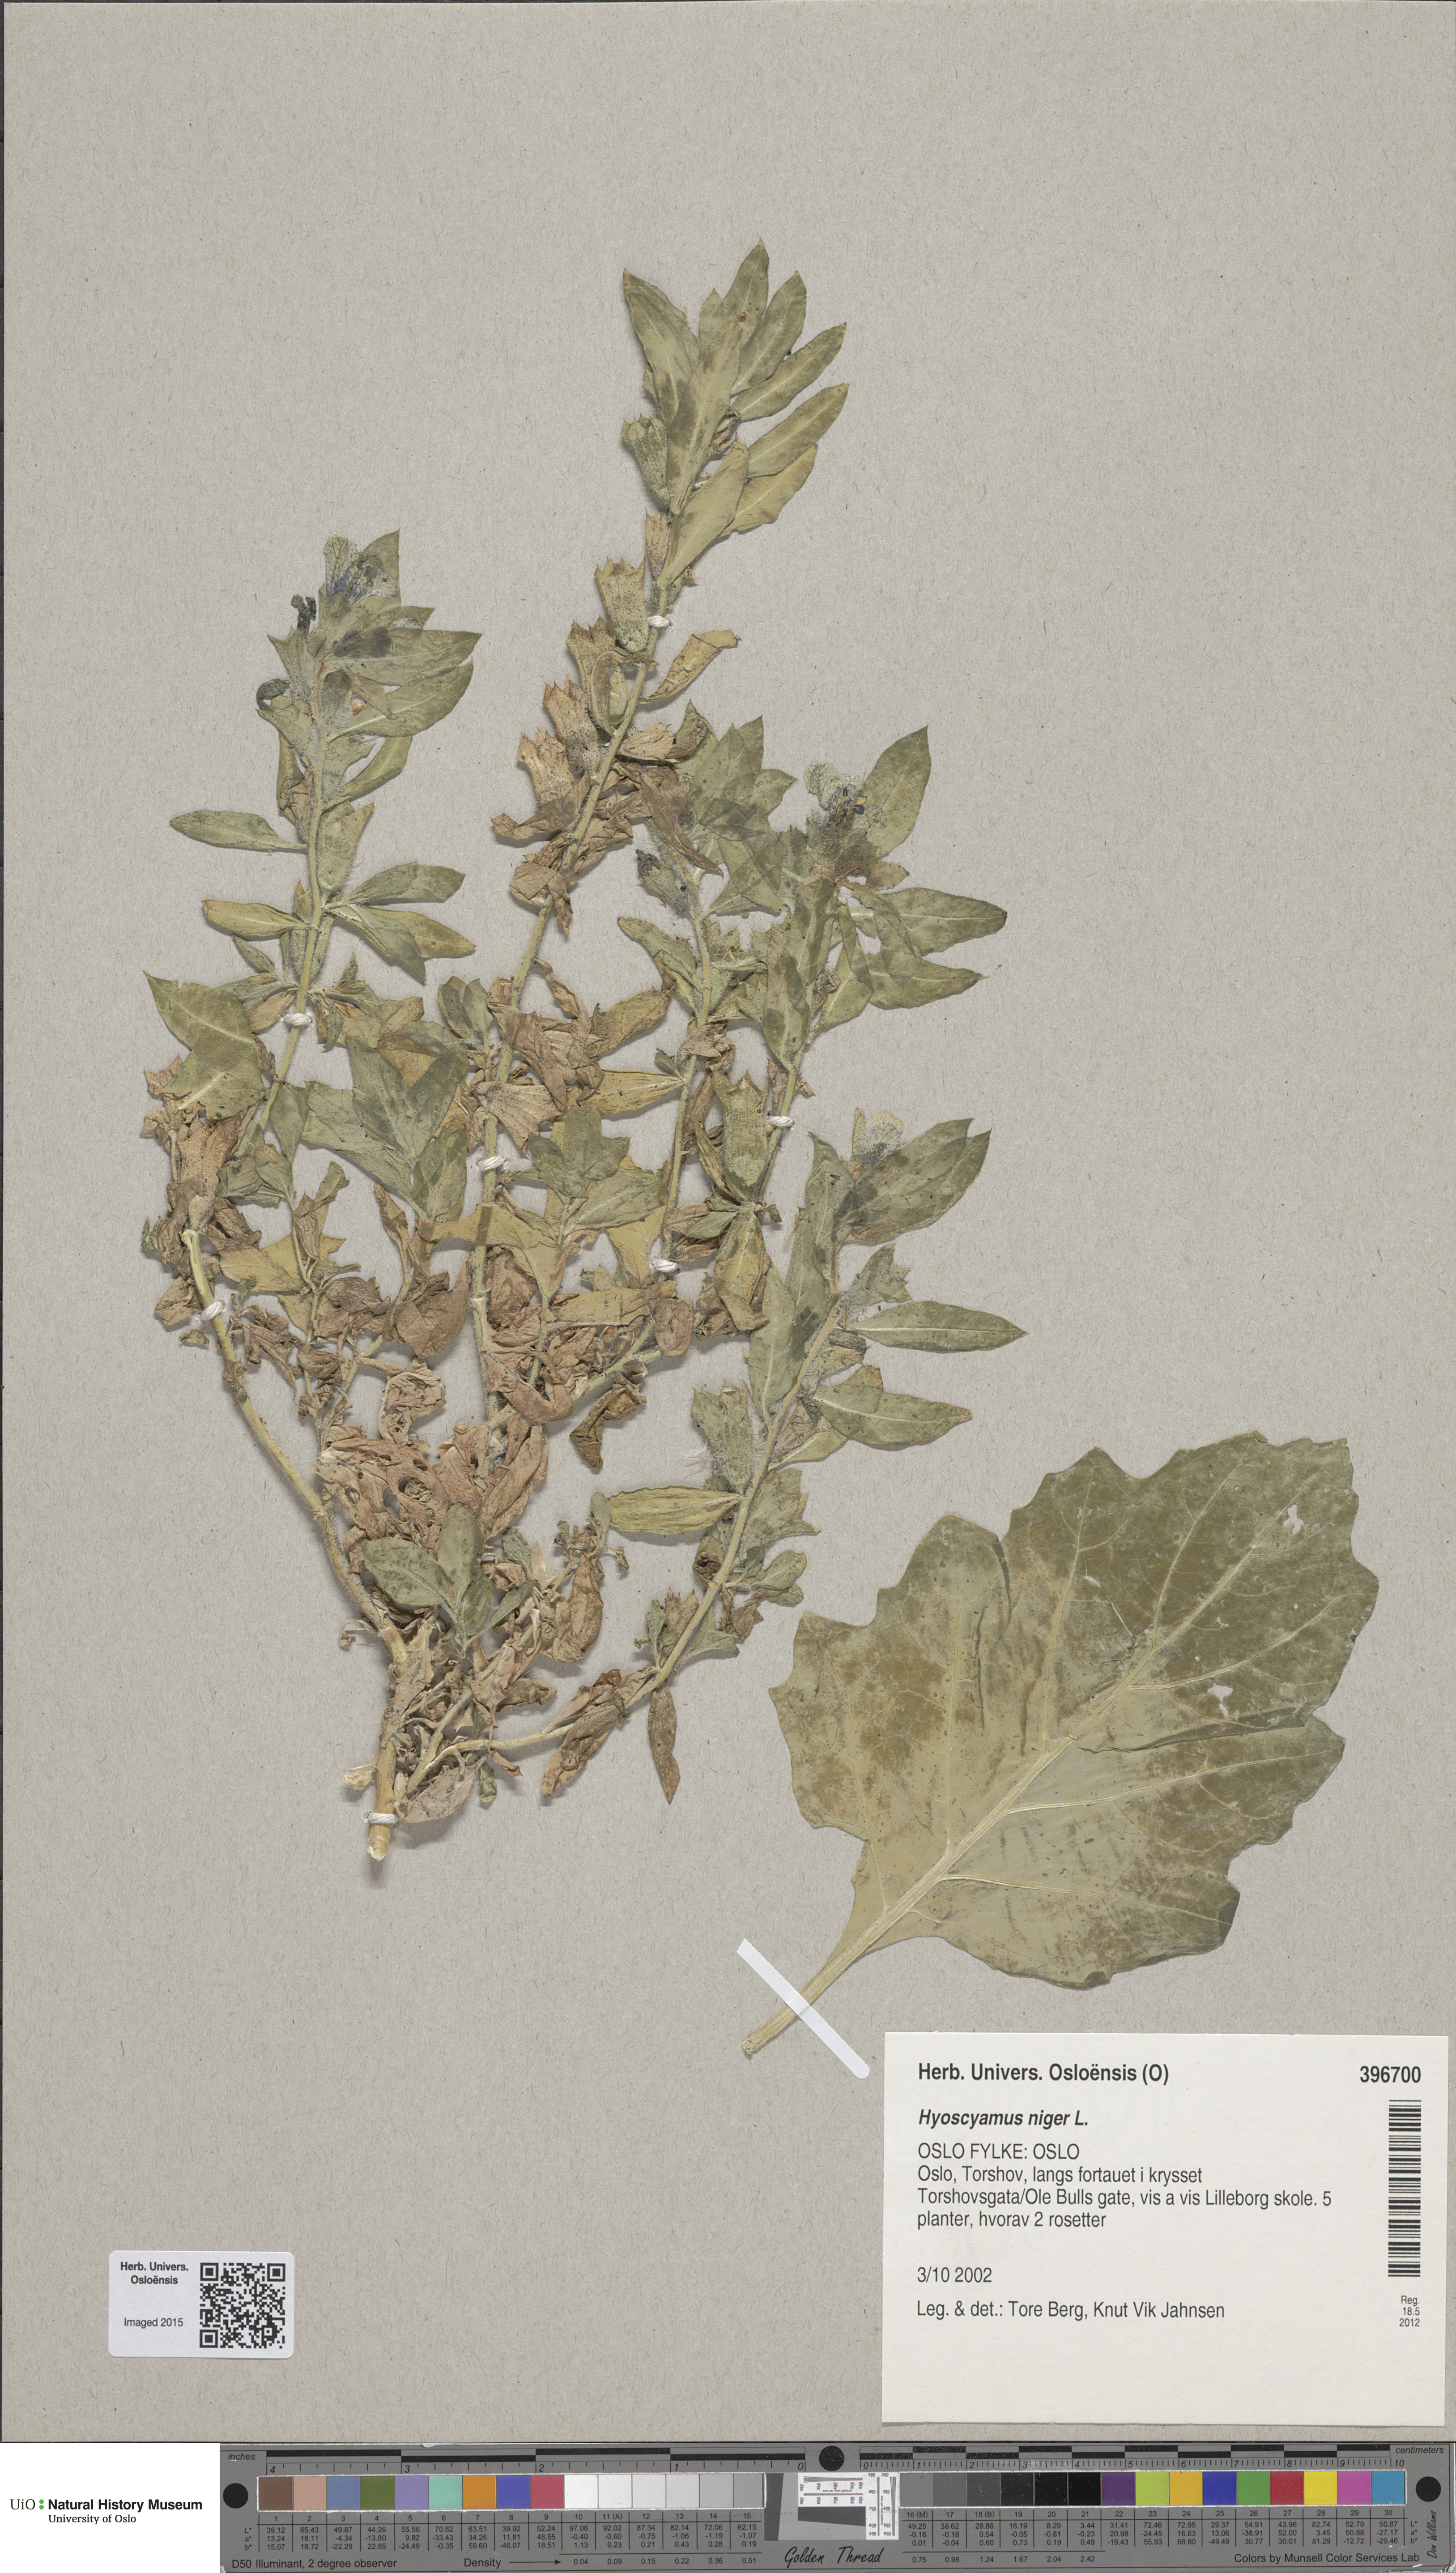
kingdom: Plantae
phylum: Tracheophyta
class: Magnoliopsida
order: Solanales
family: Solanaceae
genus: Hyoscyamus
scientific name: Hyoscyamus niger
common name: Henbane
